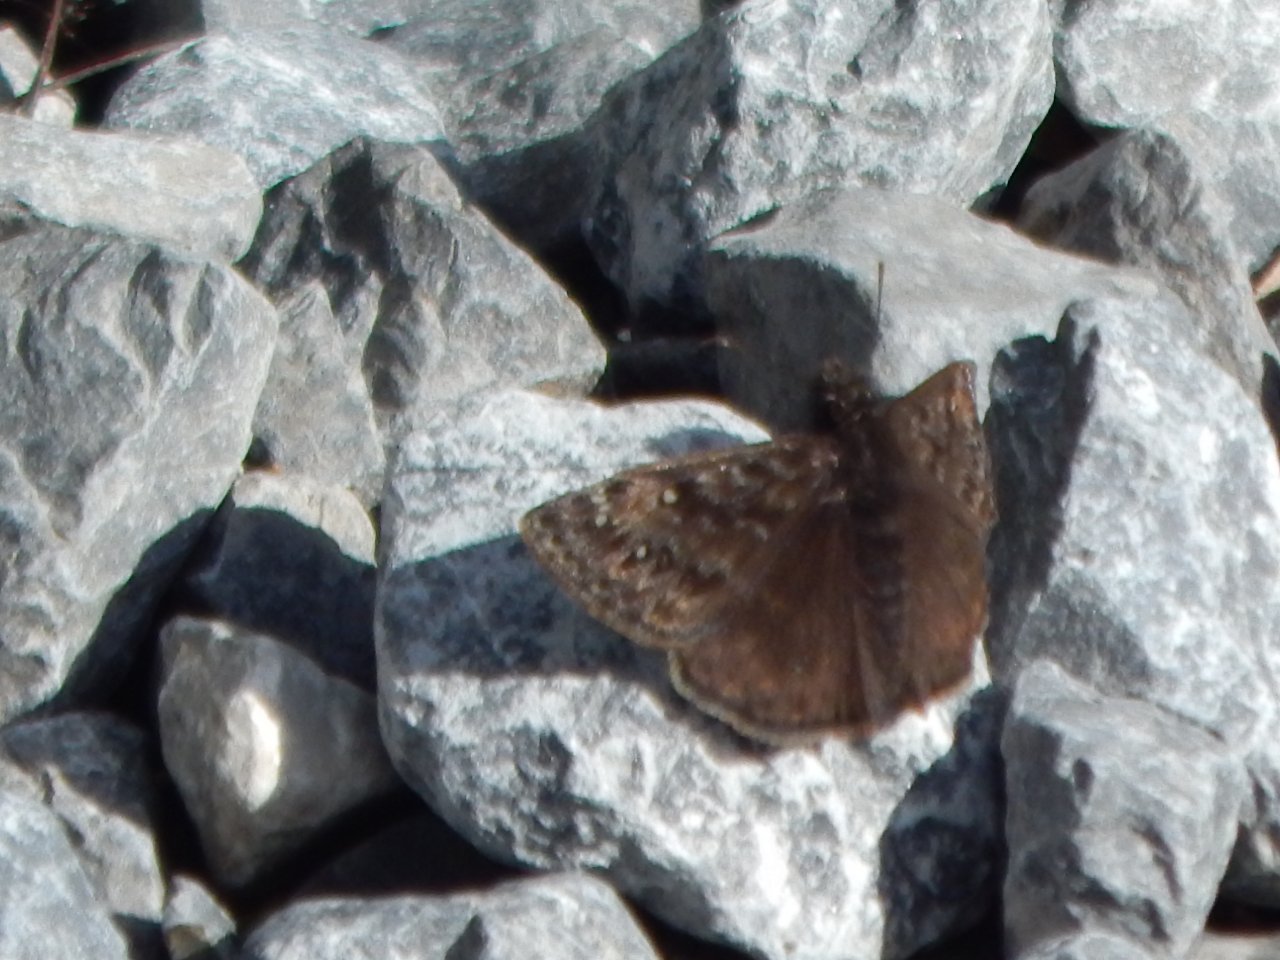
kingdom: Animalia
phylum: Arthropoda
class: Insecta
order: Lepidoptera
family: Hesperiidae
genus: Gesta
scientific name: Gesta
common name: Juvenal's Duskywing
